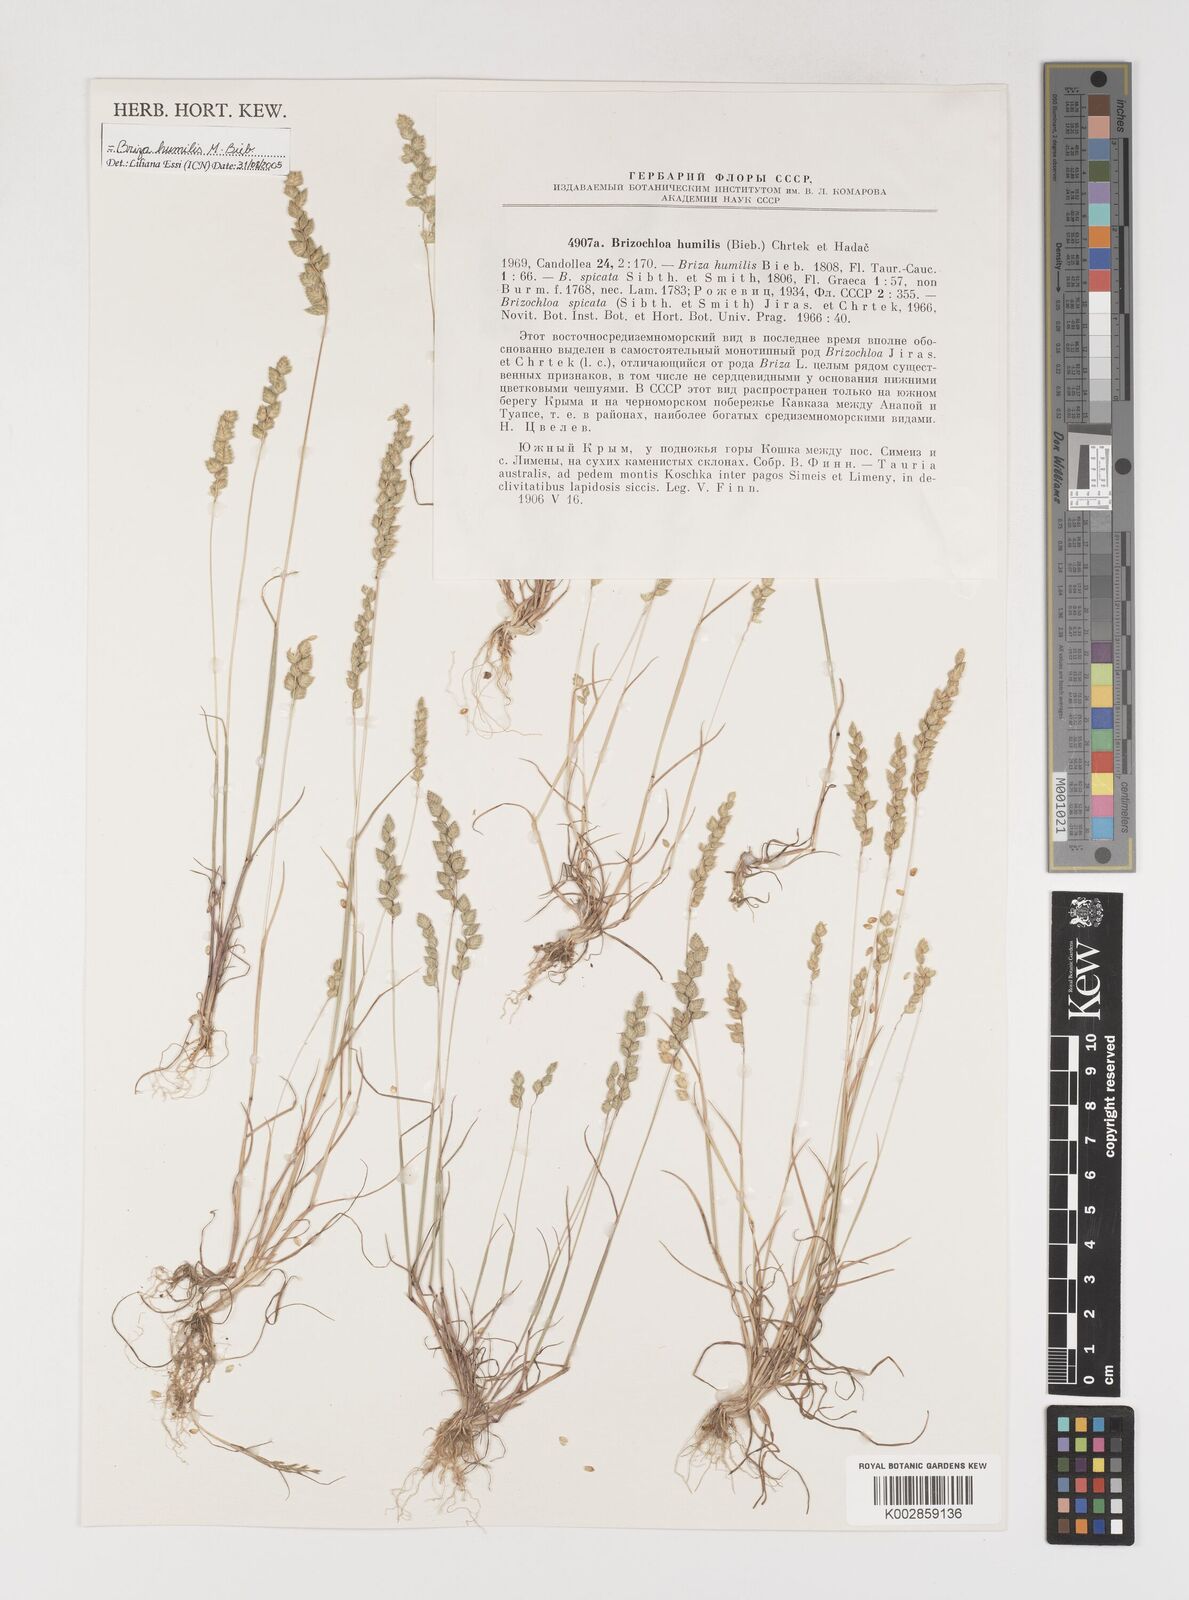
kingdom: Plantae
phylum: Tracheophyta
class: Liliopsida
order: Poales
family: Poaceae
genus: Briza
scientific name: Briza humilis
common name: Spiked quaking grass
